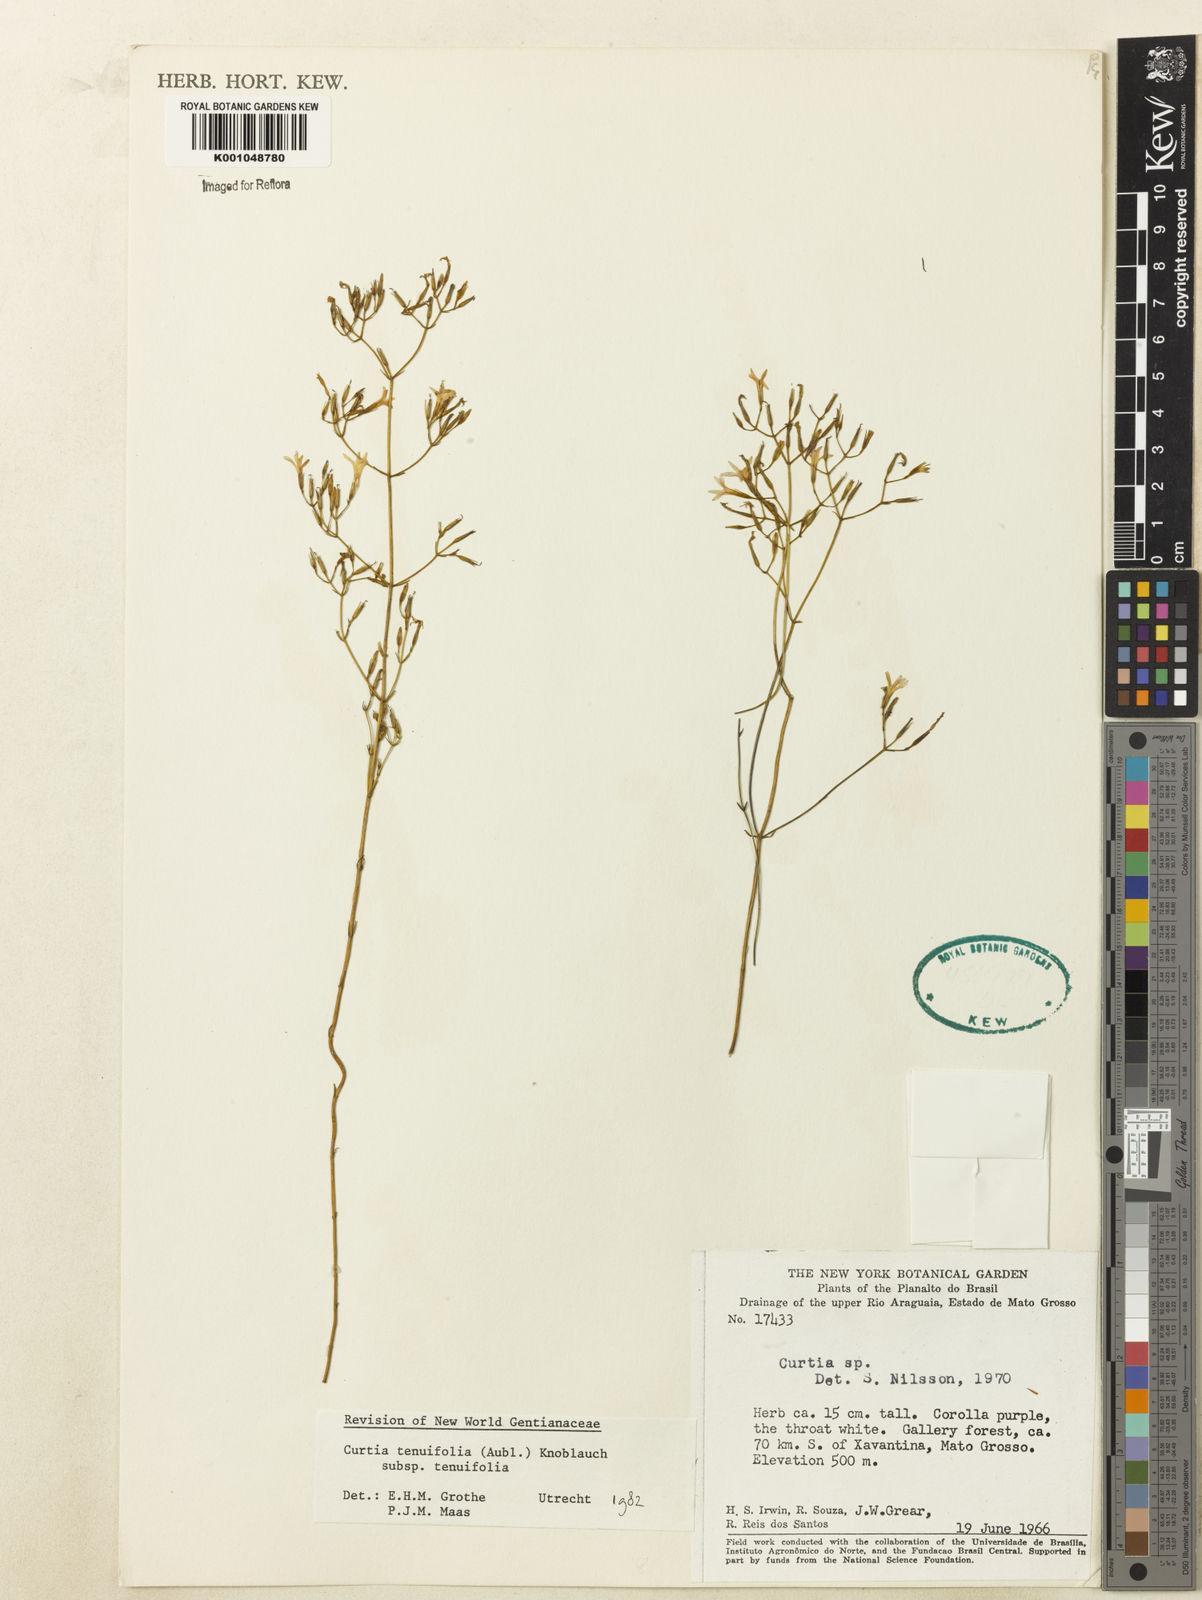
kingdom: Plantae
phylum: Tracheophyta
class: Magnoliopsida
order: Gentianales
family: Gentianaceae
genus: Curtia
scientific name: Curtia tenuifolia
